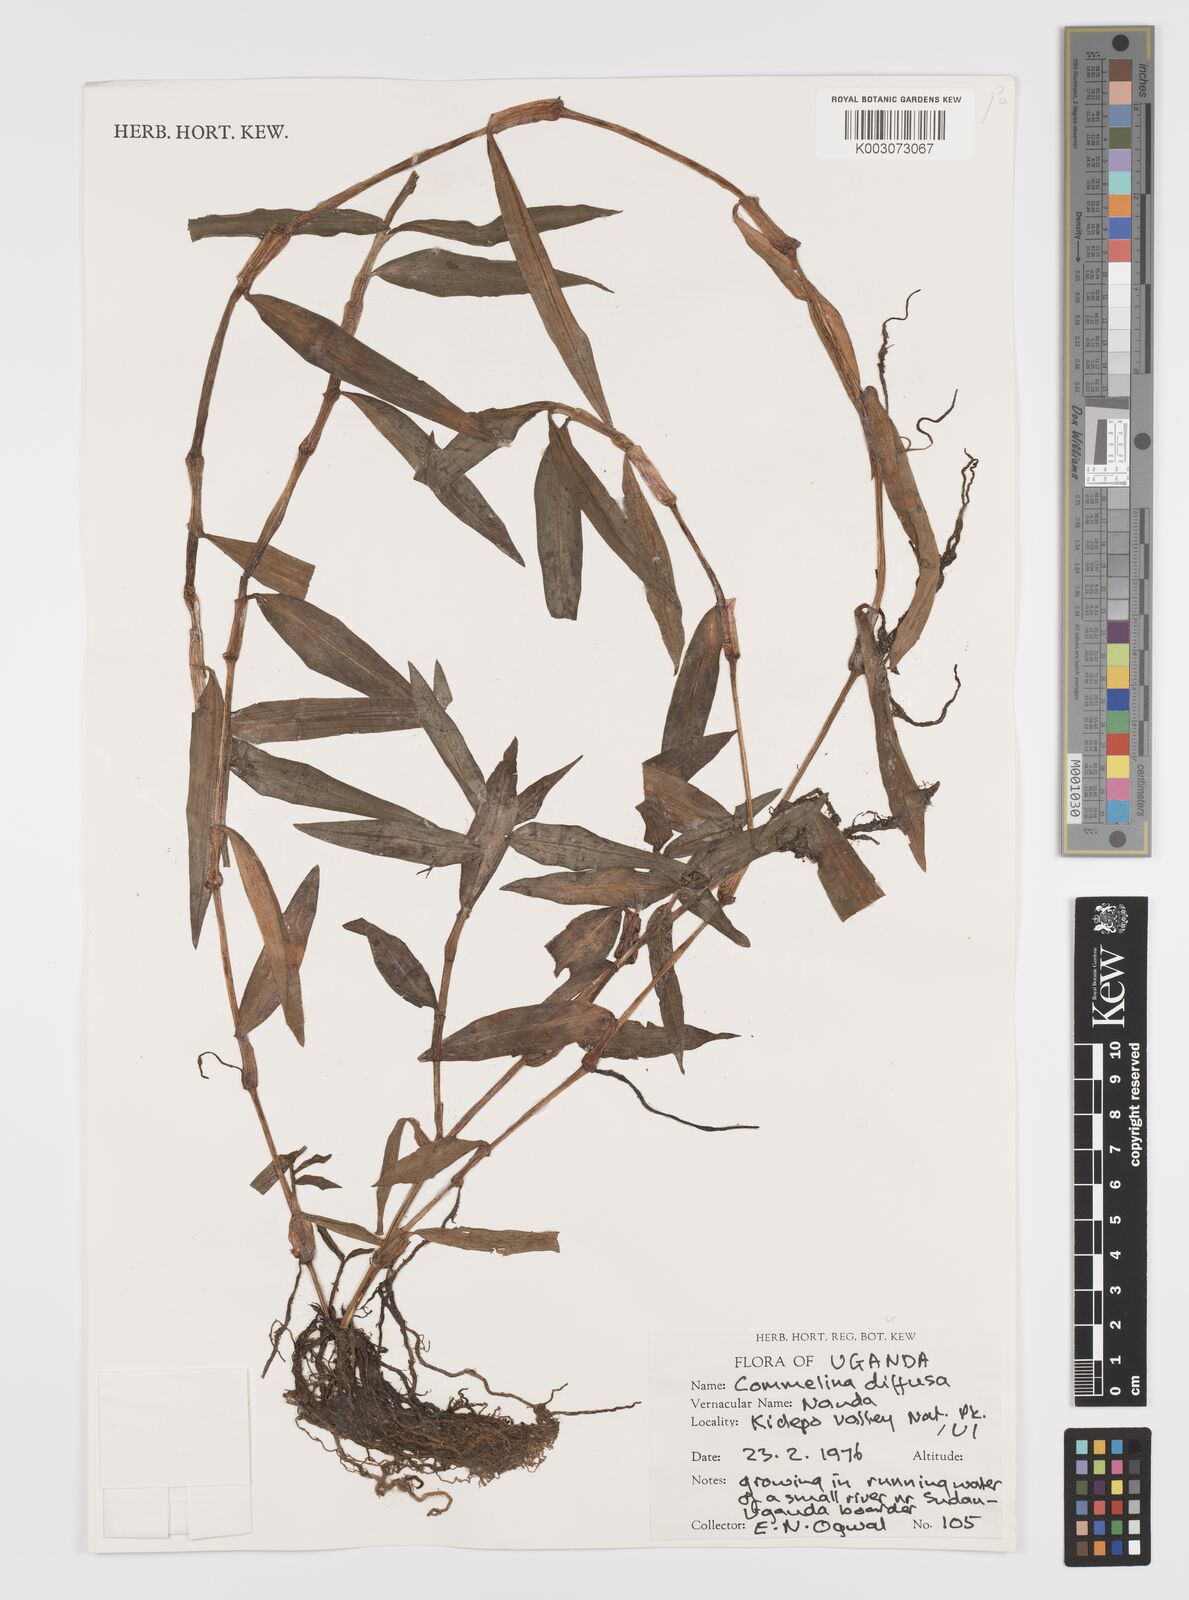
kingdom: Plantae
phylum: Tracheophyta
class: Liliopsida
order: Commelinales
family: Commelinaceae
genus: Commelina
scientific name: Commelina diffusa
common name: Climbing dayflower
